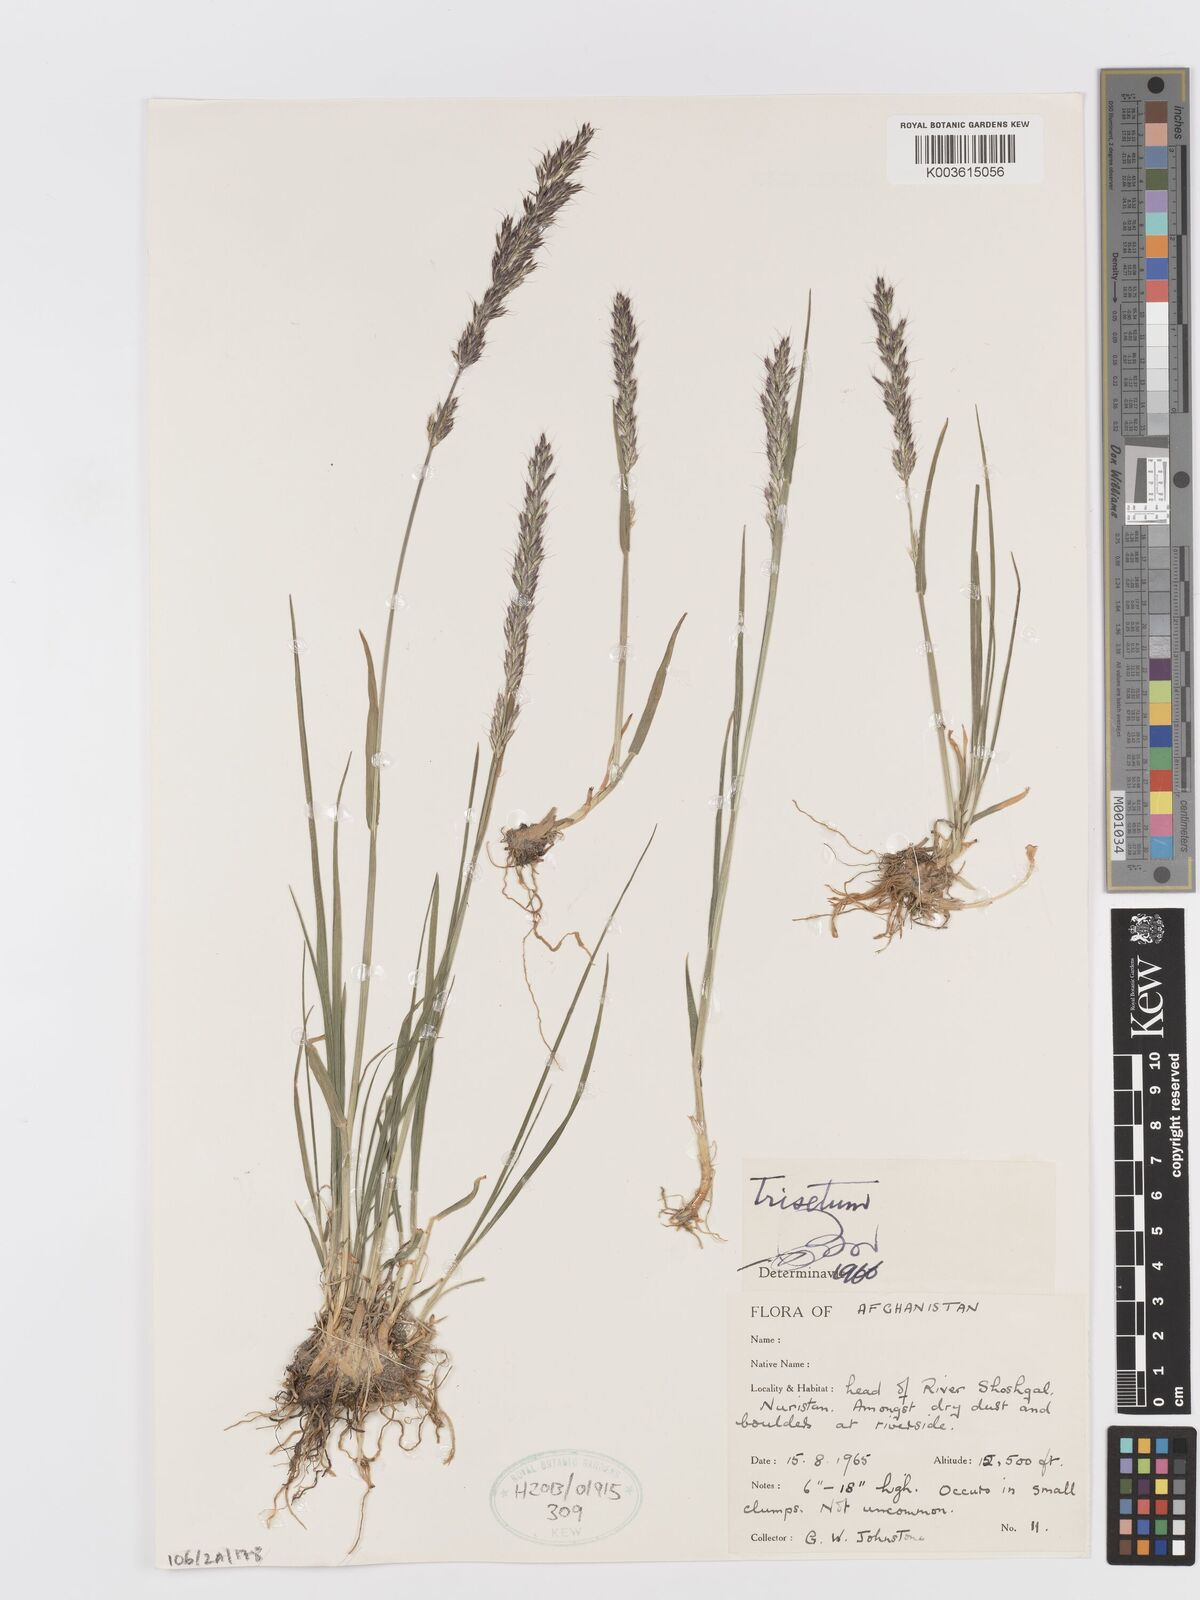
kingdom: Plantae
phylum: Tracheophyta
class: Liliopsida
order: Poales
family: Poaceae
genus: Trisetum
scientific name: Trisetum
